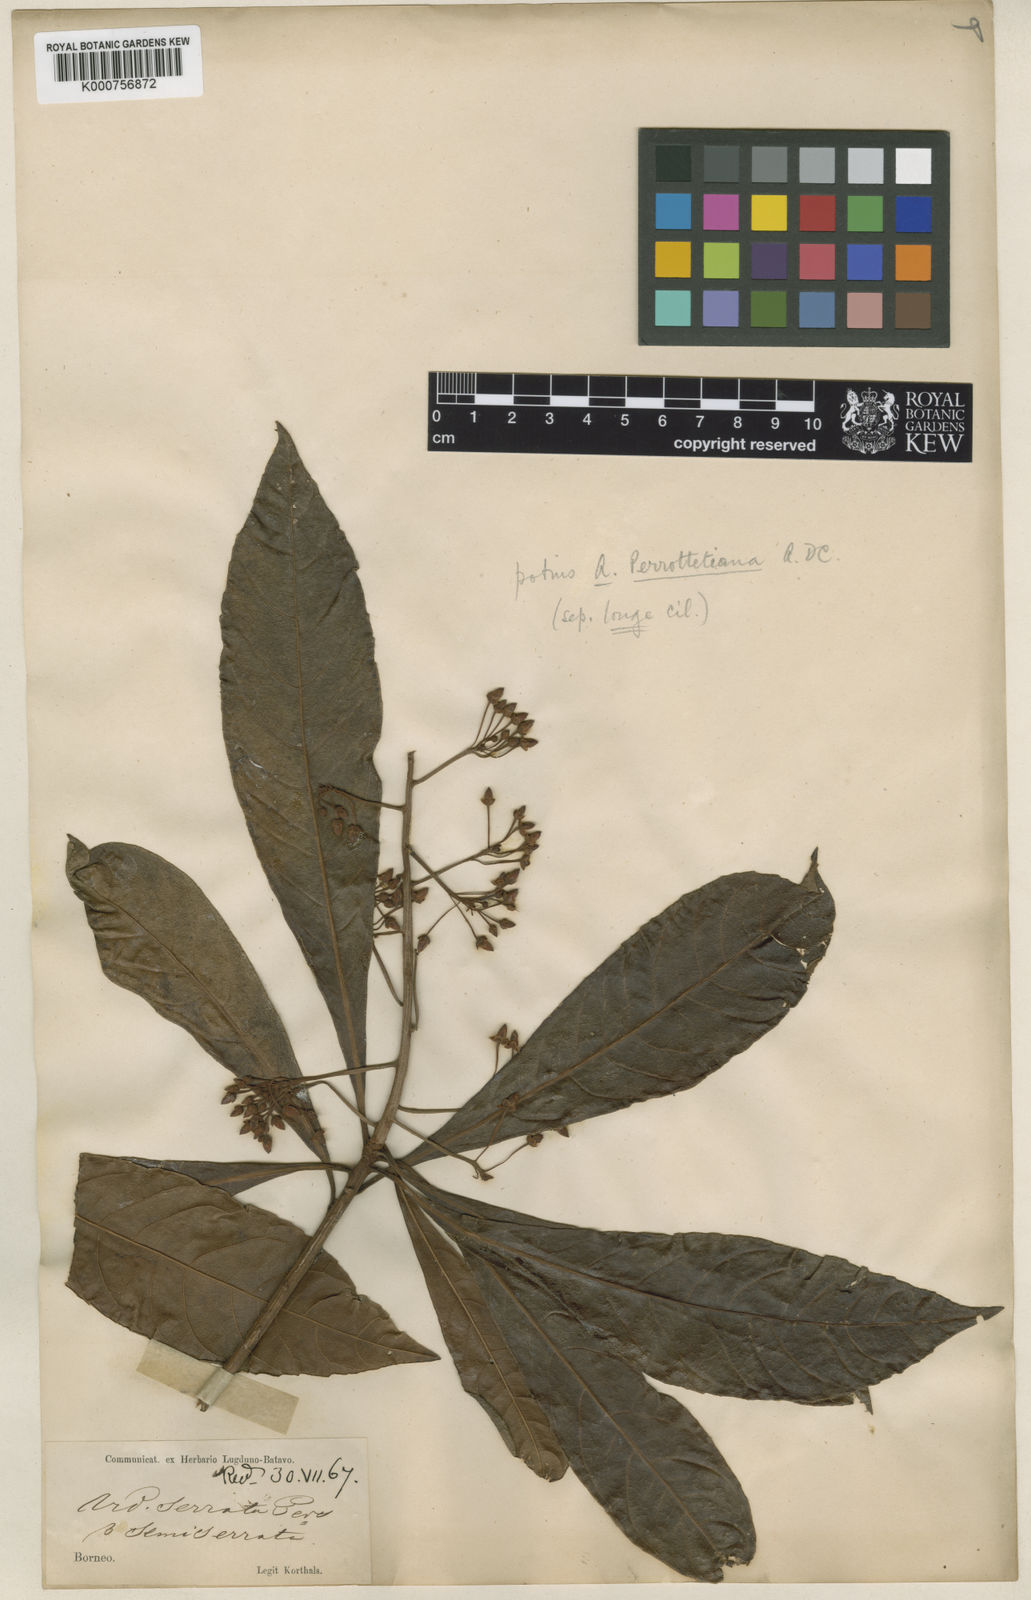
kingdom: Plantae
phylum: Tracheophyta
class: Magnoliopsida
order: Ericales
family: Primulaceae
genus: Ardisia
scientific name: Ardisia pyramidalis
